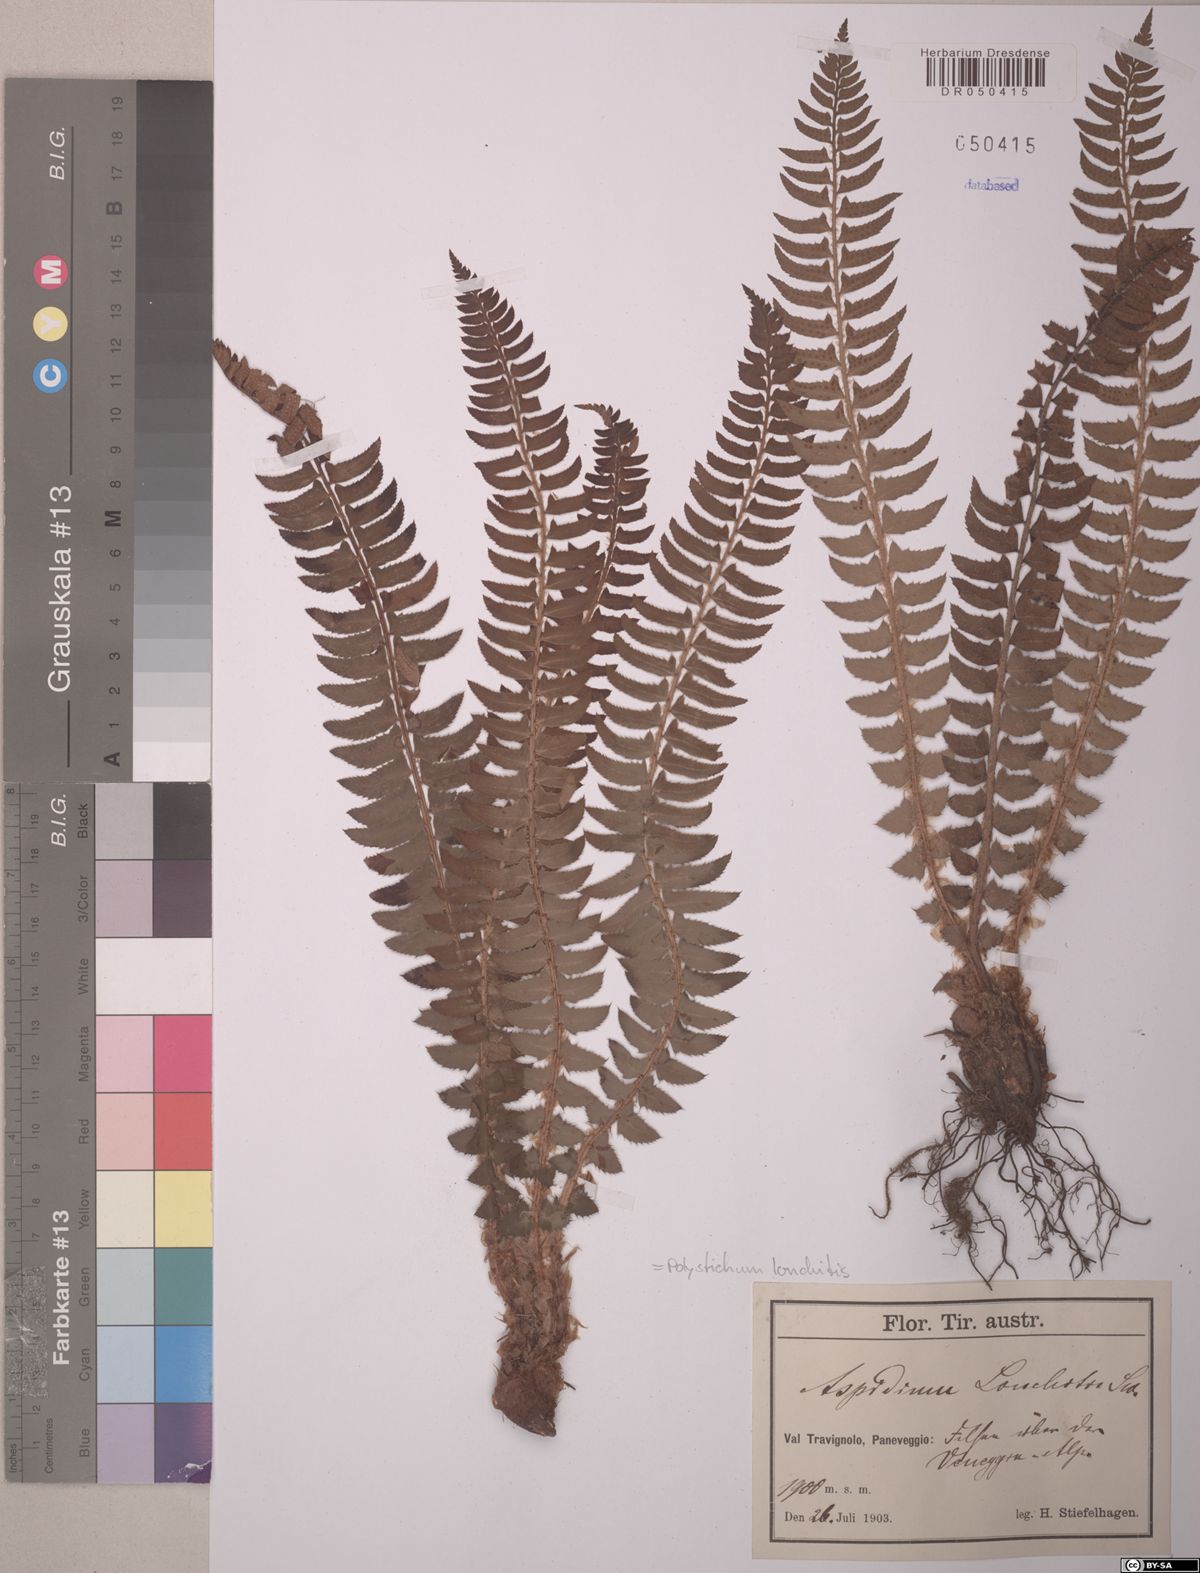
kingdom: Plantae
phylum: Tracheophyta
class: Polypodiopsida
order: Polypodiales
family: Dryopteridaceae
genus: Polystichum
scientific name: Polystichum lonchitis
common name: Holly fern
